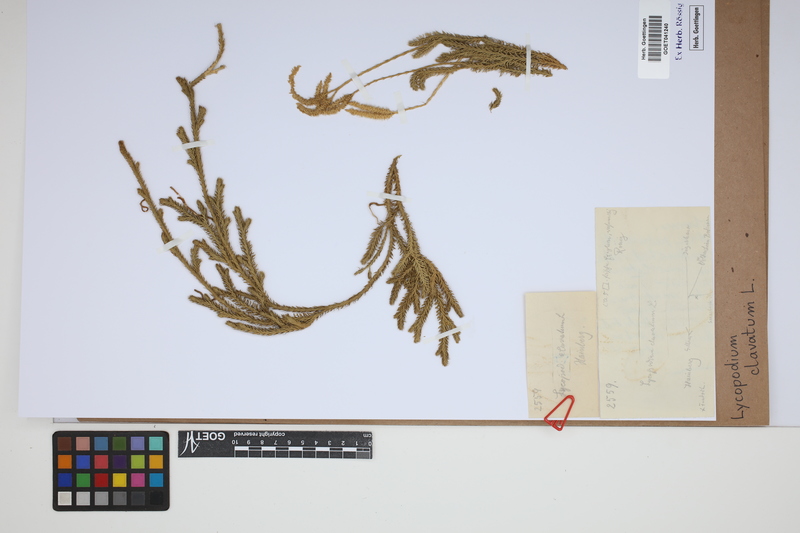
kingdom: Plantae
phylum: Tracheophyta
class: Lycopodiopsida
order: Lycopodiales
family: Lycopodiaceae
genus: Lycopodium
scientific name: Lycopodium clavatum
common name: Stag's-horn clubmoss
